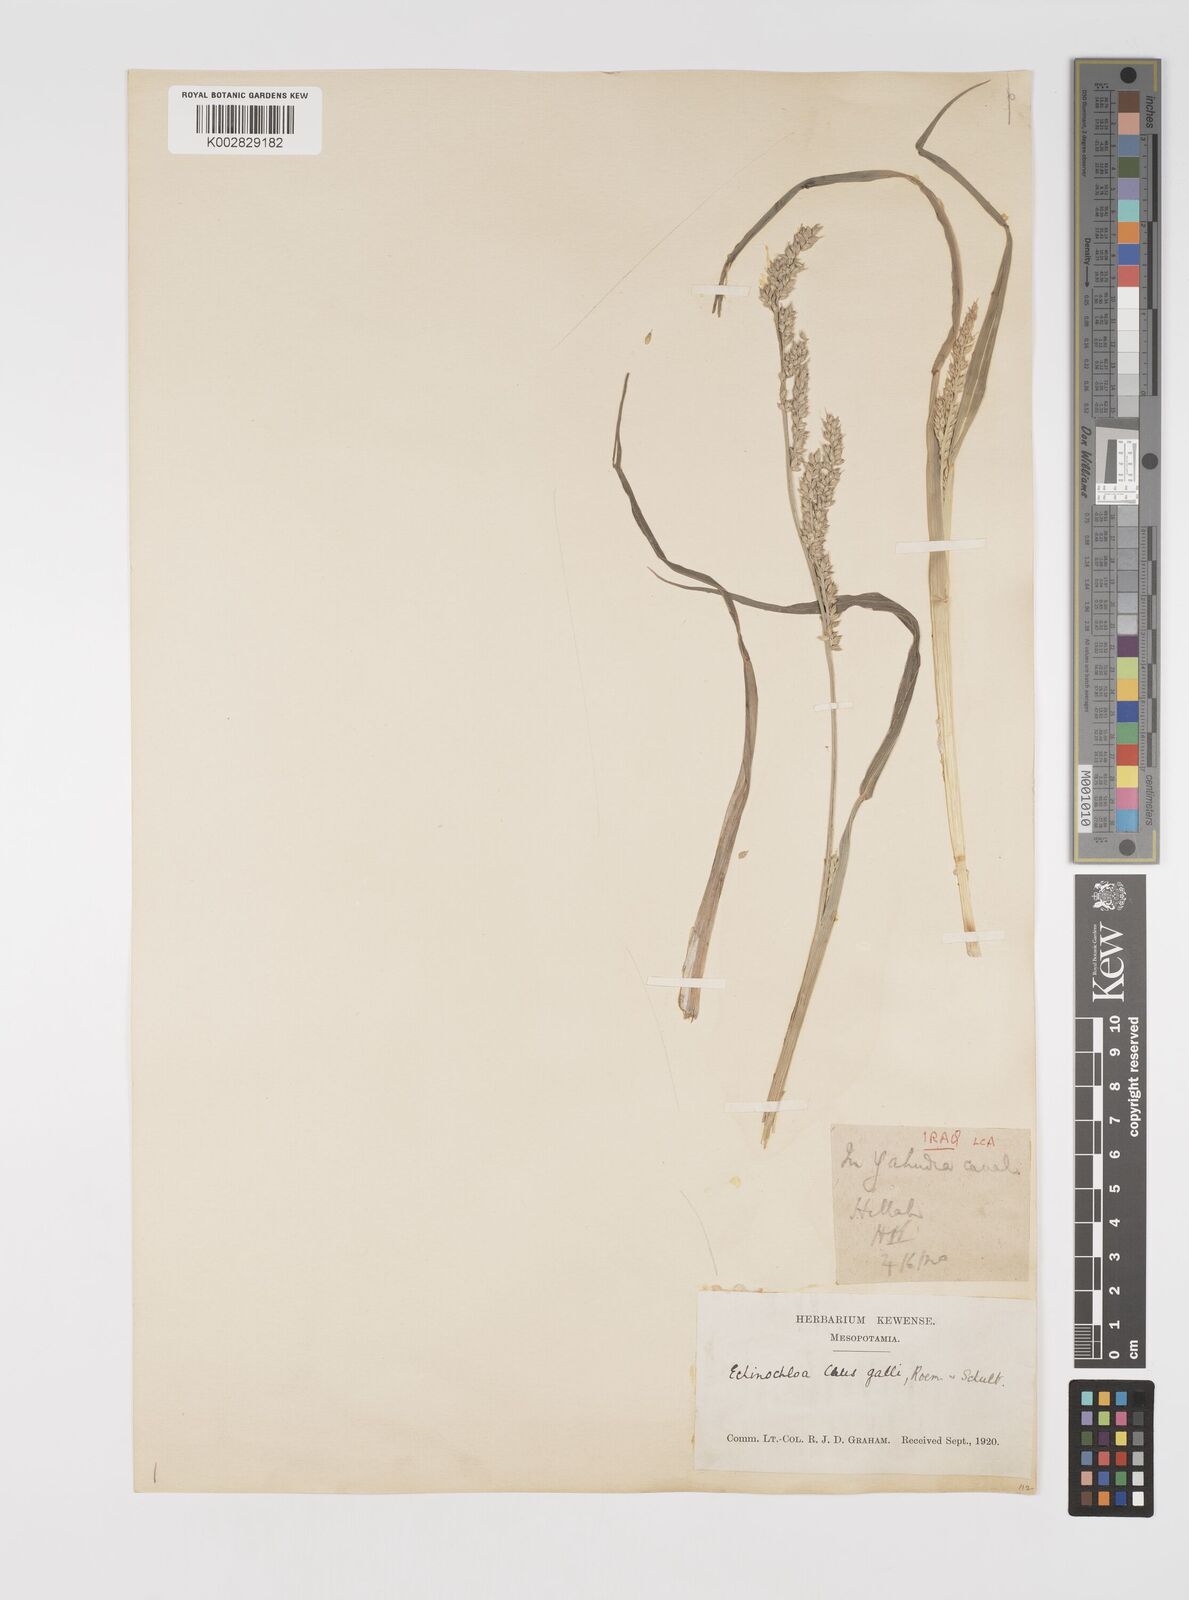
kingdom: Plantae
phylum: Tracheophyta
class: Liliopsida
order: Poales
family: Poaceae
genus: Echinochloa
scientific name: Echinochloa crus-galli
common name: Cockspur
